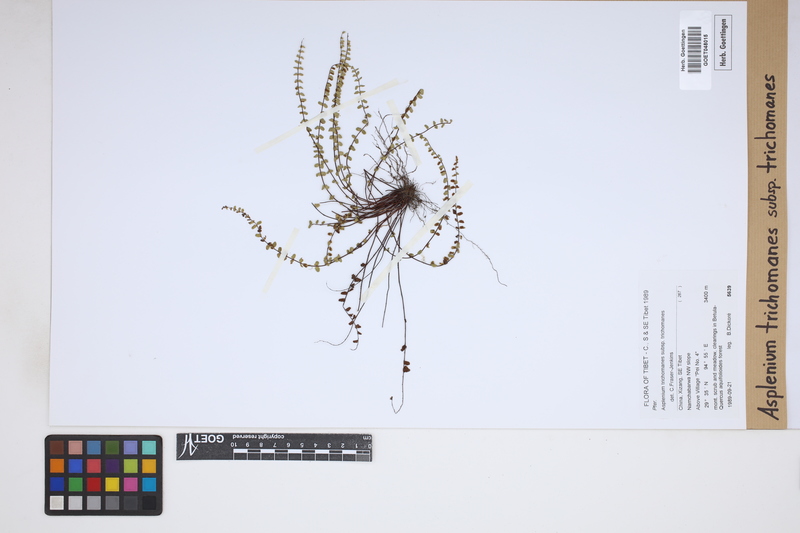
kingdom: Plantae
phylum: Tracheophyta
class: Polypodiopsida
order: Polypodiales
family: Aspleniaceae
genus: Asplenium
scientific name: Asplenium trichomanes
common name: Maidenhair spleenwort
